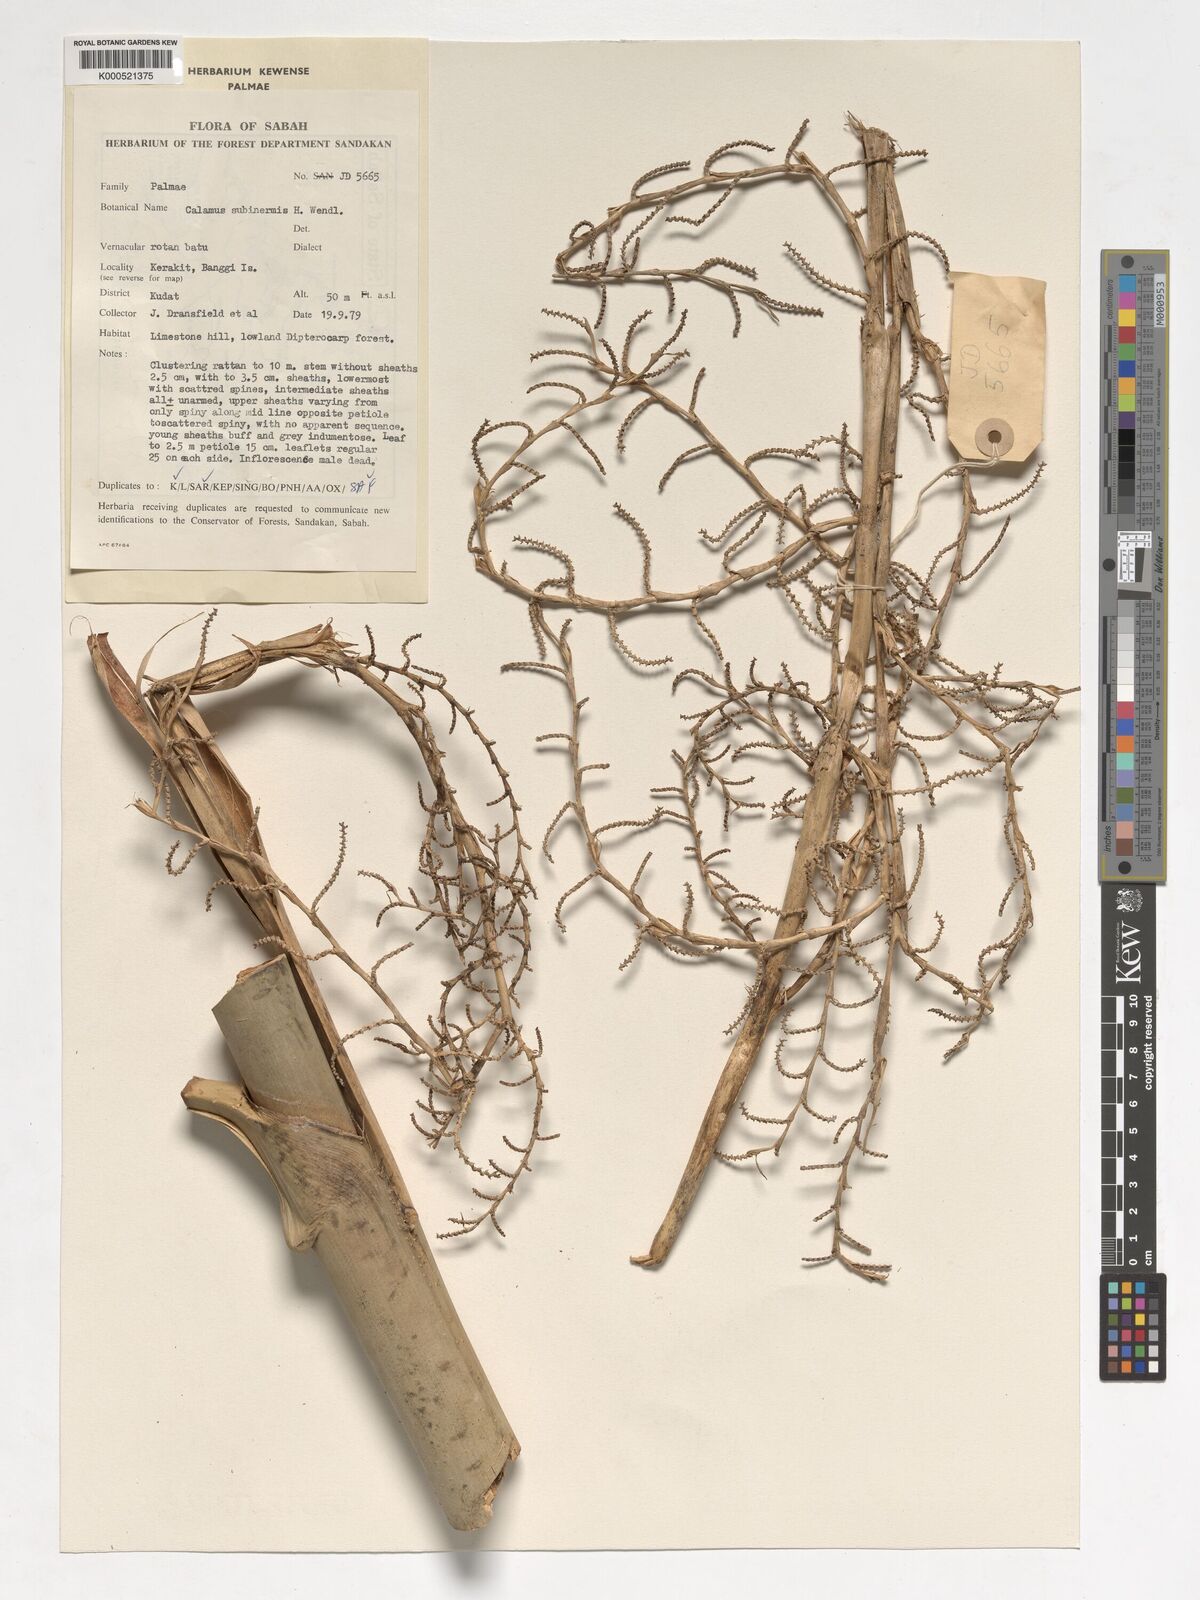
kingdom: Plantae
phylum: Tracheophyta
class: Liliopsida
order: Arecales
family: Arecaceae
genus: Calamus
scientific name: Calamus moseleyanus
